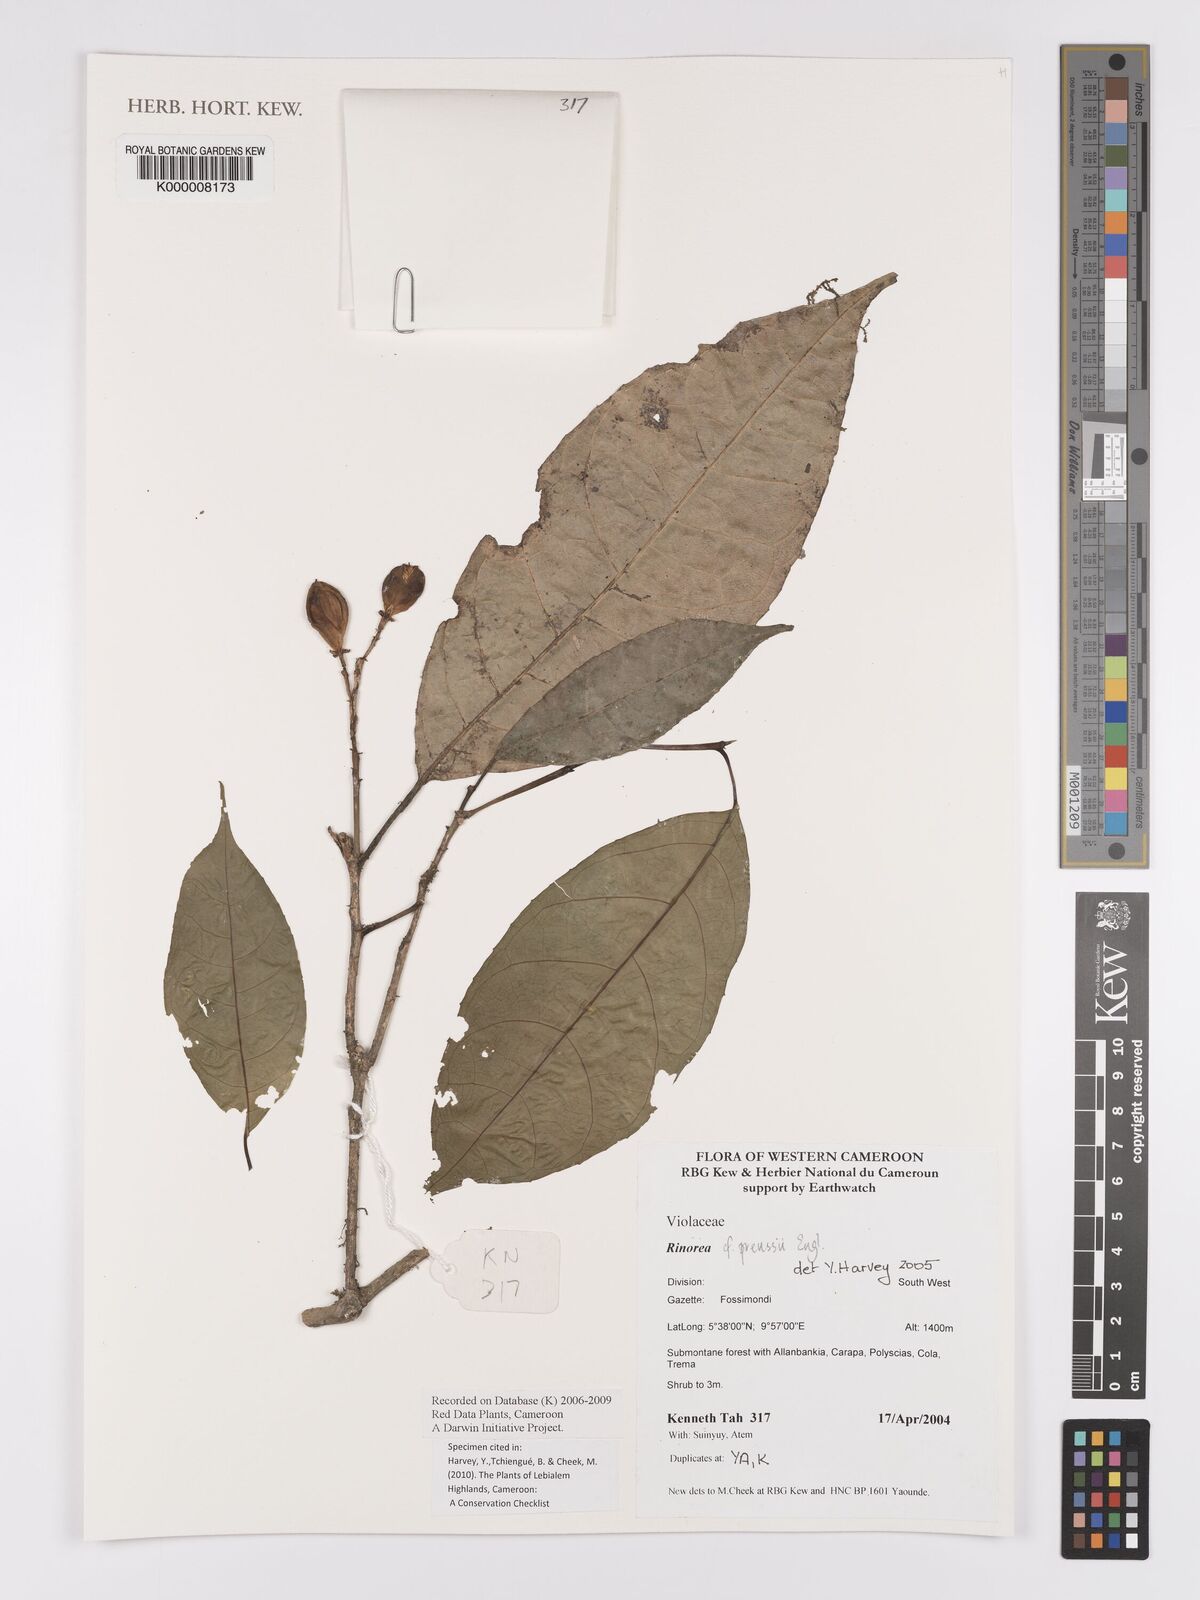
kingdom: Plantae
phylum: Tracheophyta
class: Magnoliopsida
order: Malpighiales
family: Violaceae
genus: Rinorea
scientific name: Rinorea preussii
